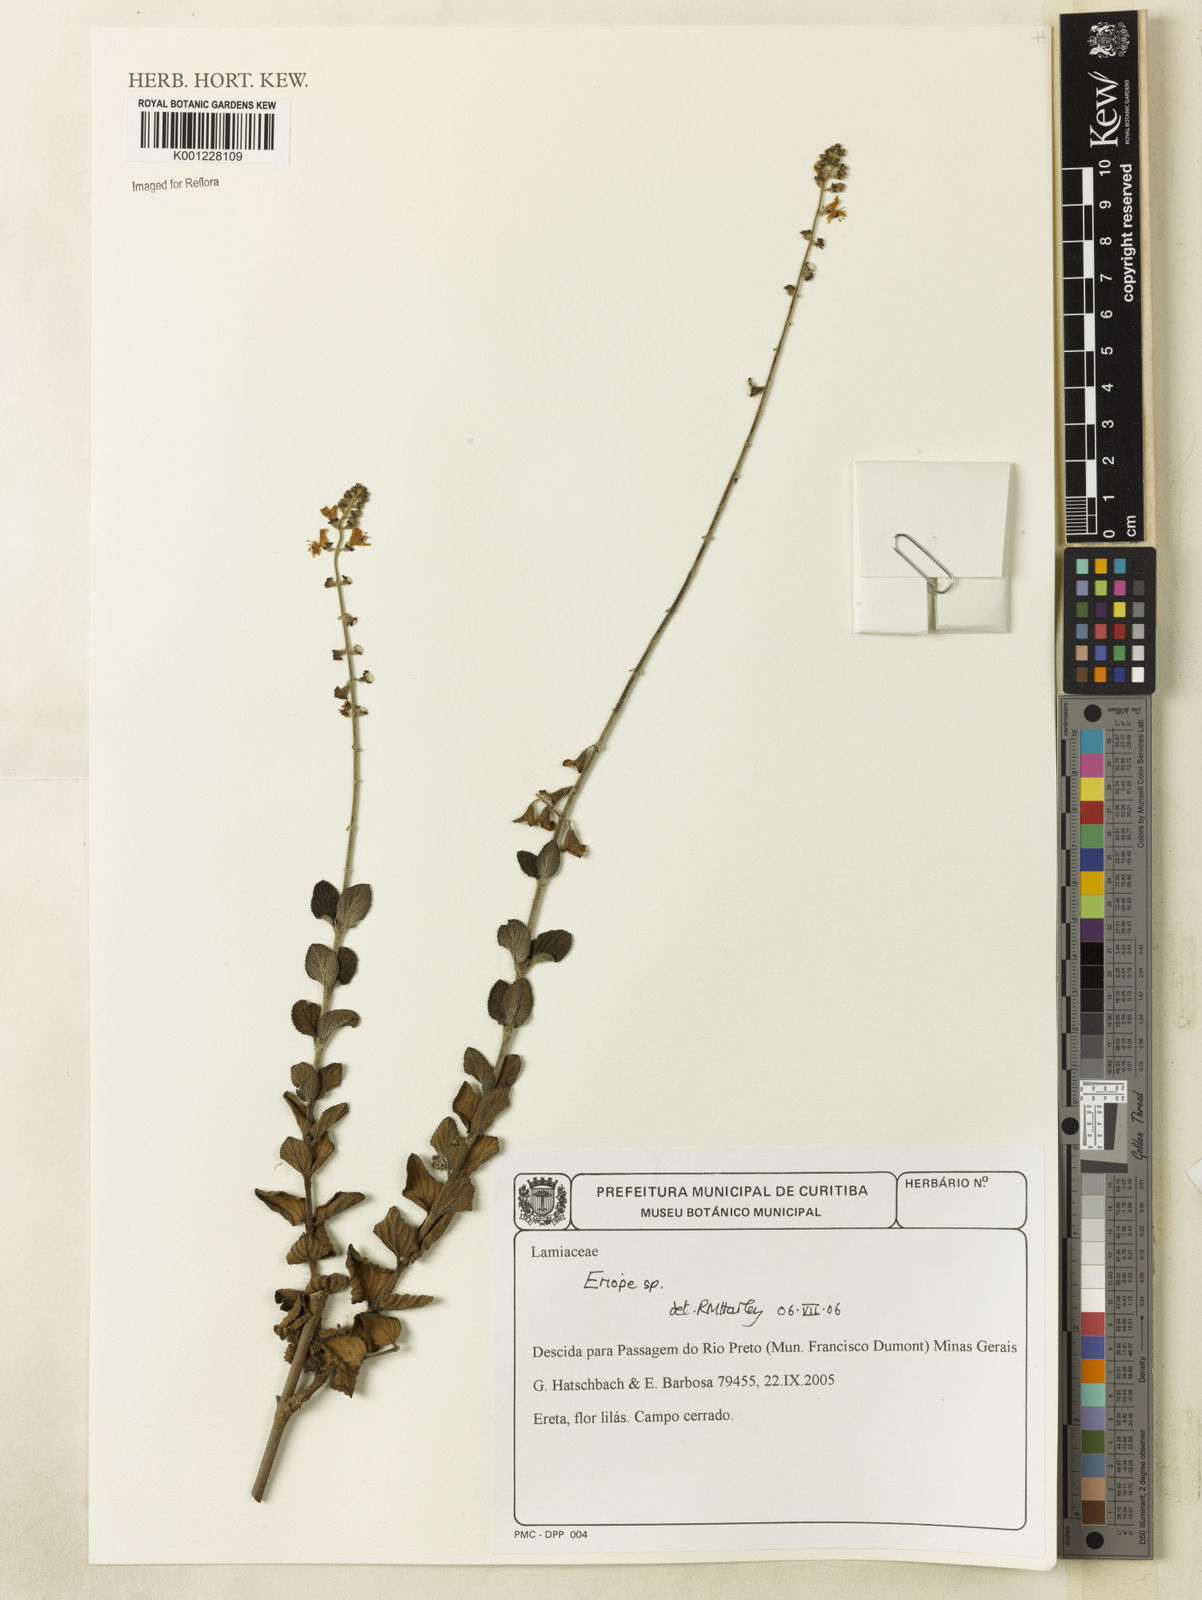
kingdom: Plantae
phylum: Tracheophyta
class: Magnoliopsida
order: Lamiales
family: Lamiaceae
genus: Eriope
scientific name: Eriope
